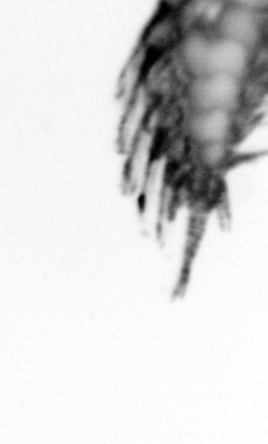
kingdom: Animalia
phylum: Arthropoda
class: Copepoda
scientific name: Copepoda
